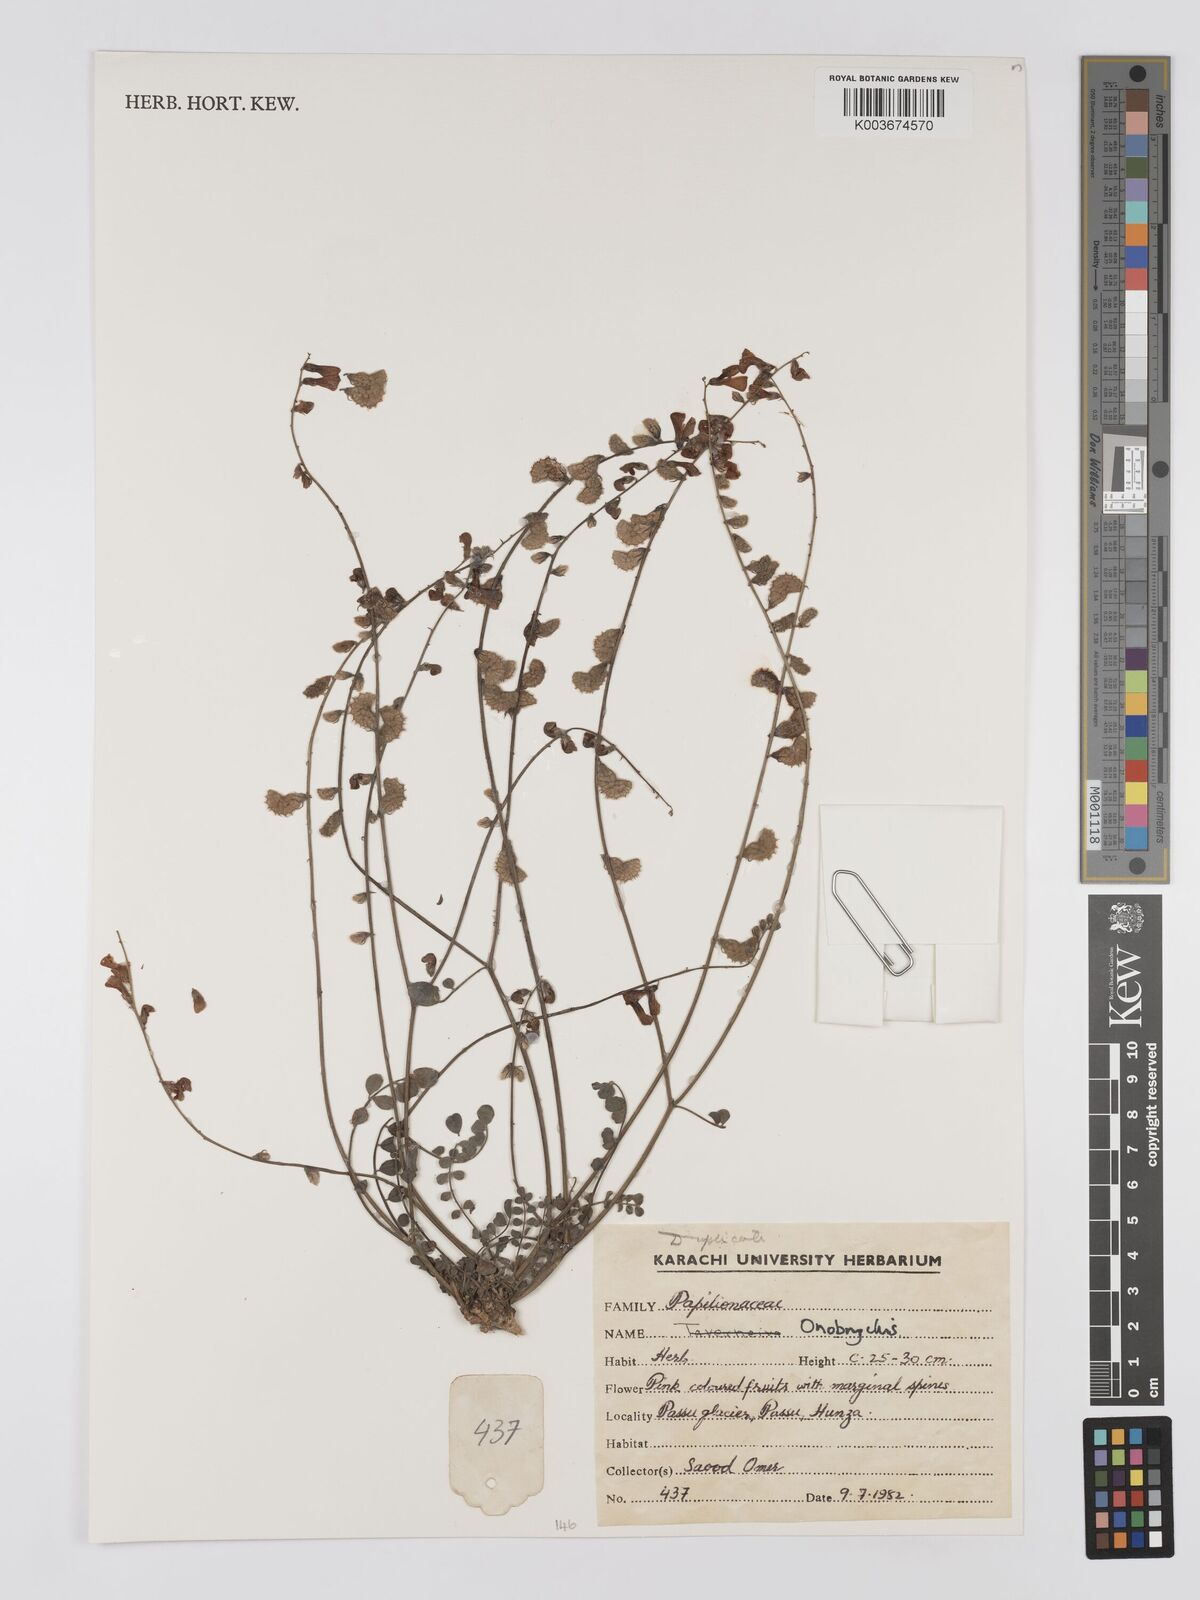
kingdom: Plantae
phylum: Tracheophyta
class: Magnoliopsida
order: Fabales
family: Fabaceae
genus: Onobrychis
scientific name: Onobrychis
